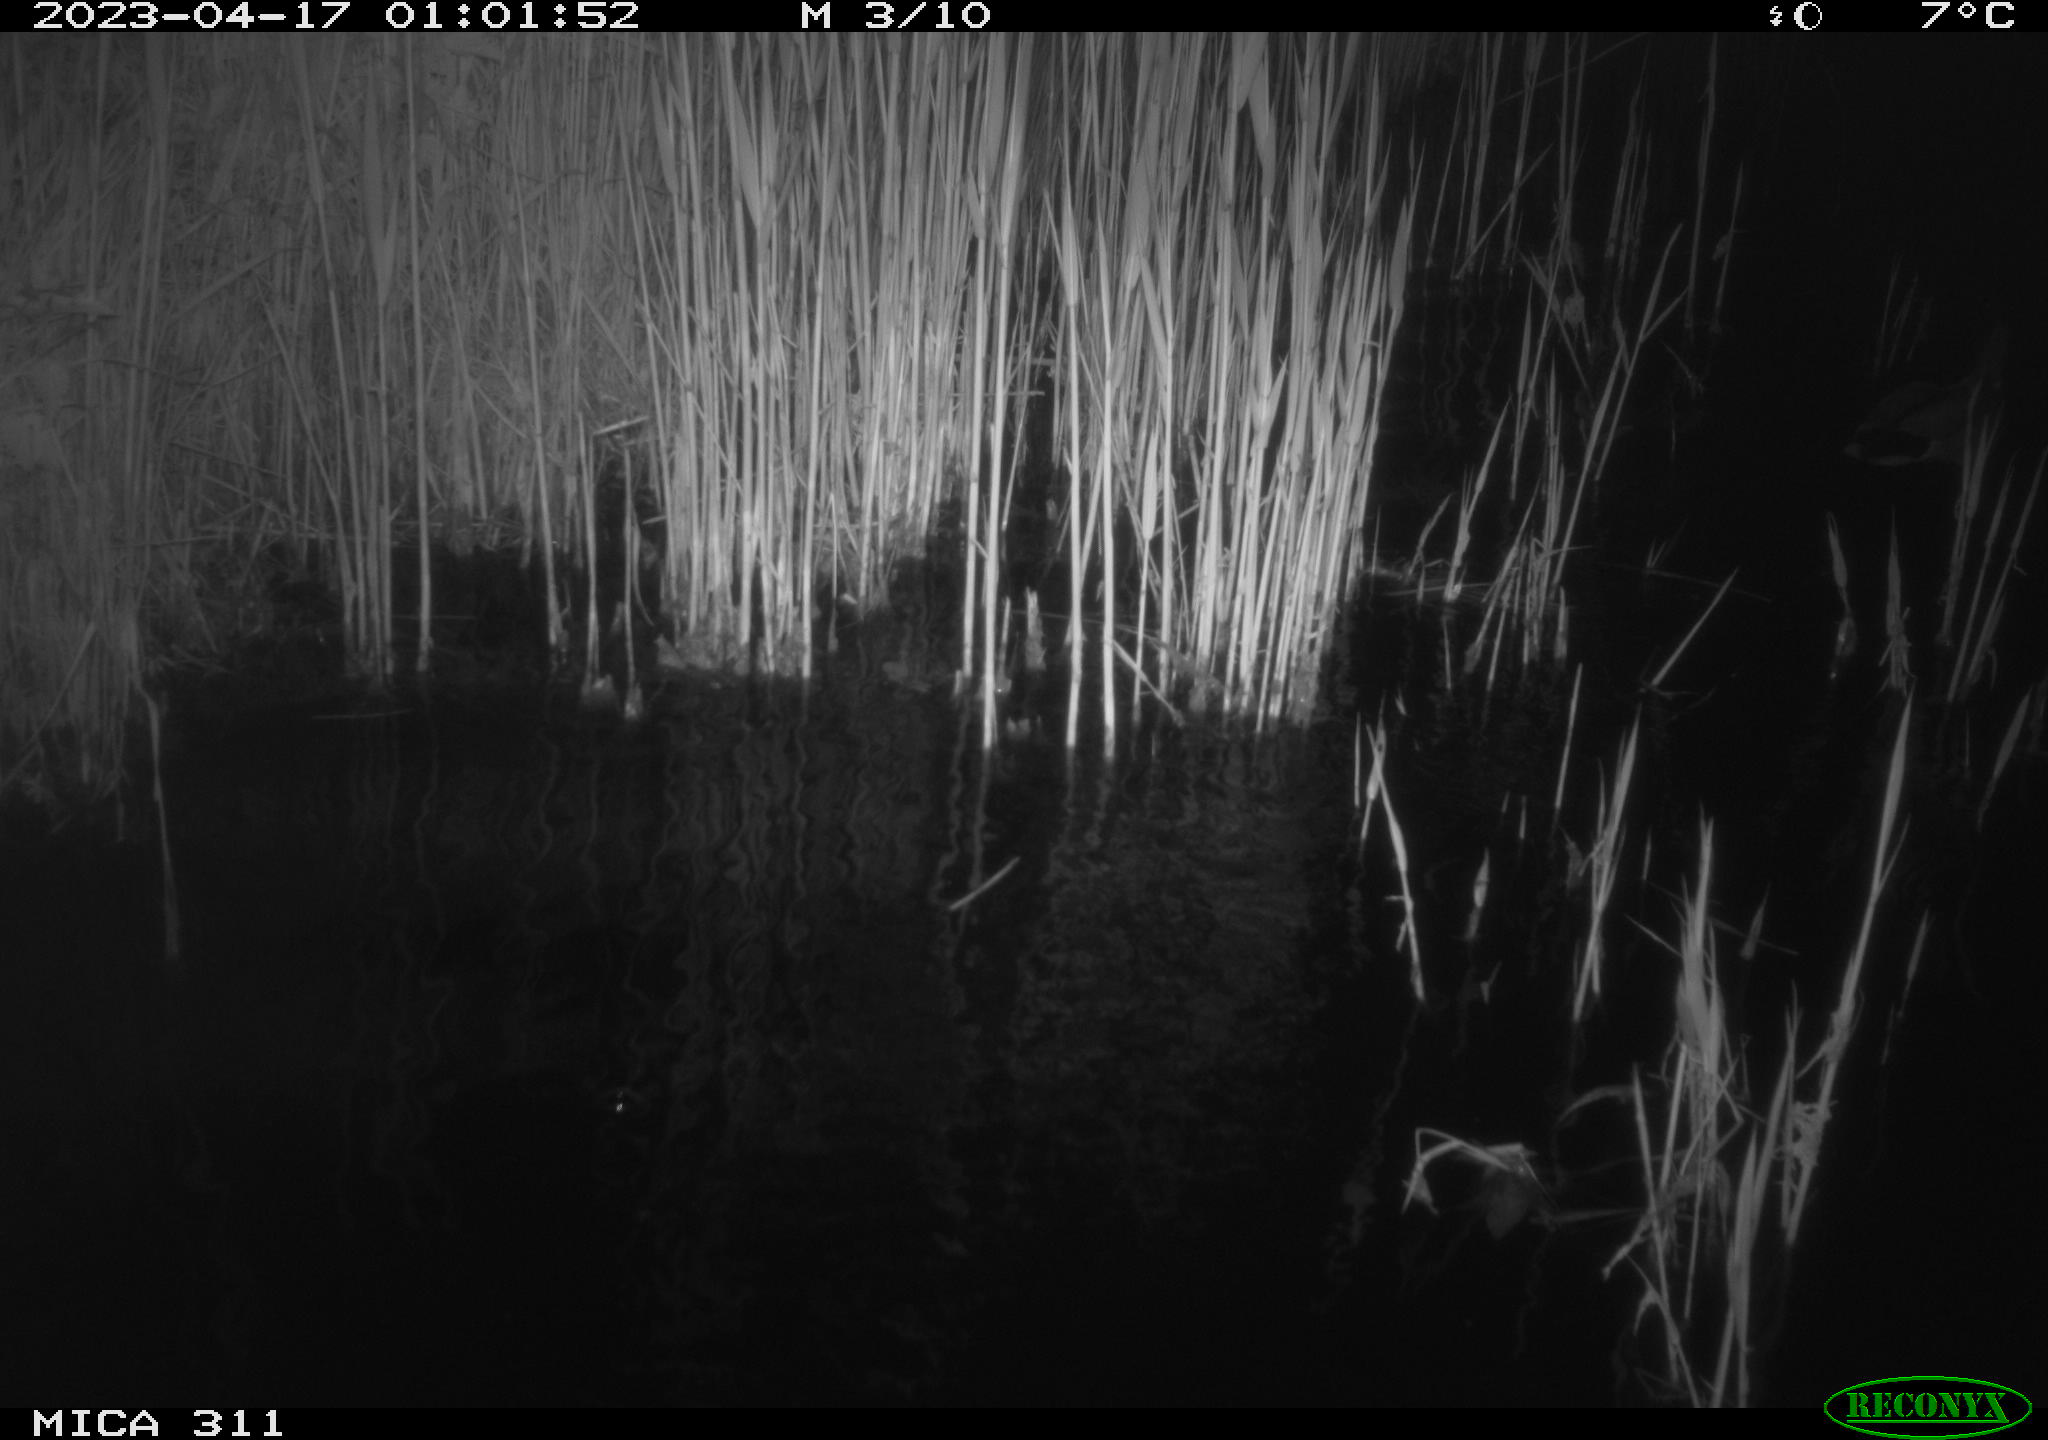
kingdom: Animalia
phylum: Chordata
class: Aves
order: Anseriformes
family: Anatidae
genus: Anas
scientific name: Anas
